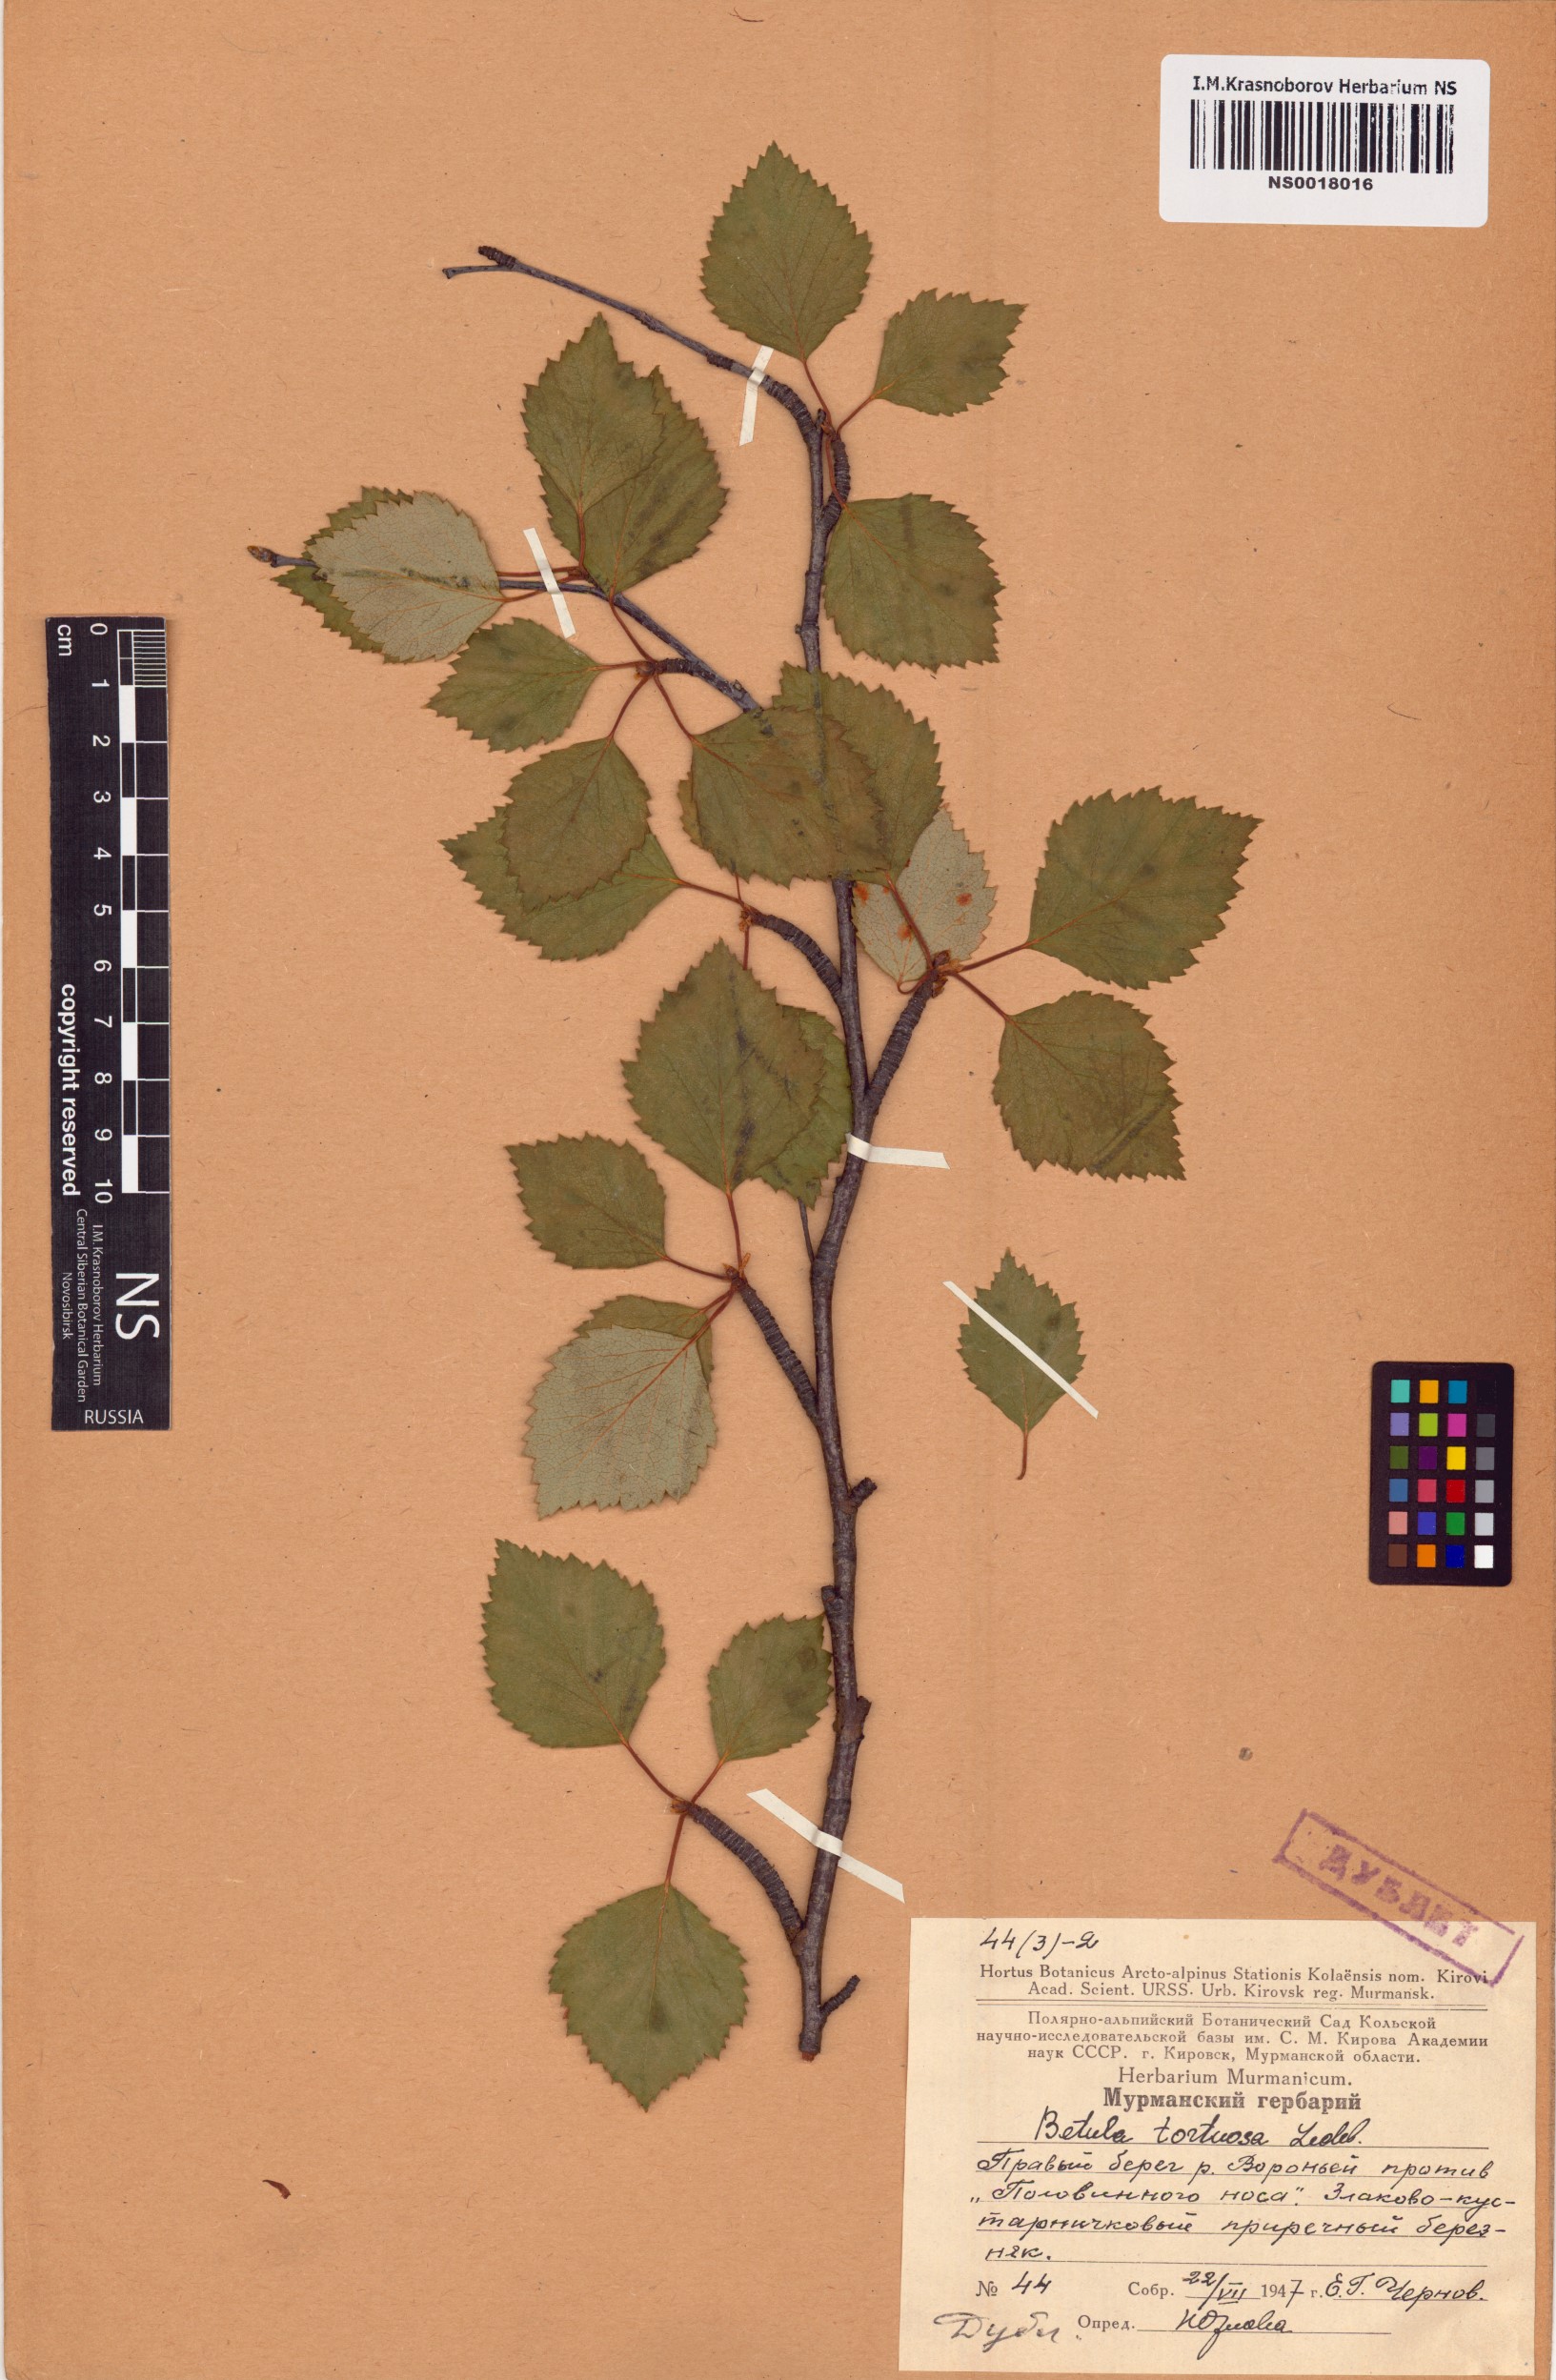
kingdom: Plantae
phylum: Tracheophyta
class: Magnoliopsida
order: Fagales
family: Betulaceae
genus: Betula
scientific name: Betula pubescens
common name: Downy birch
